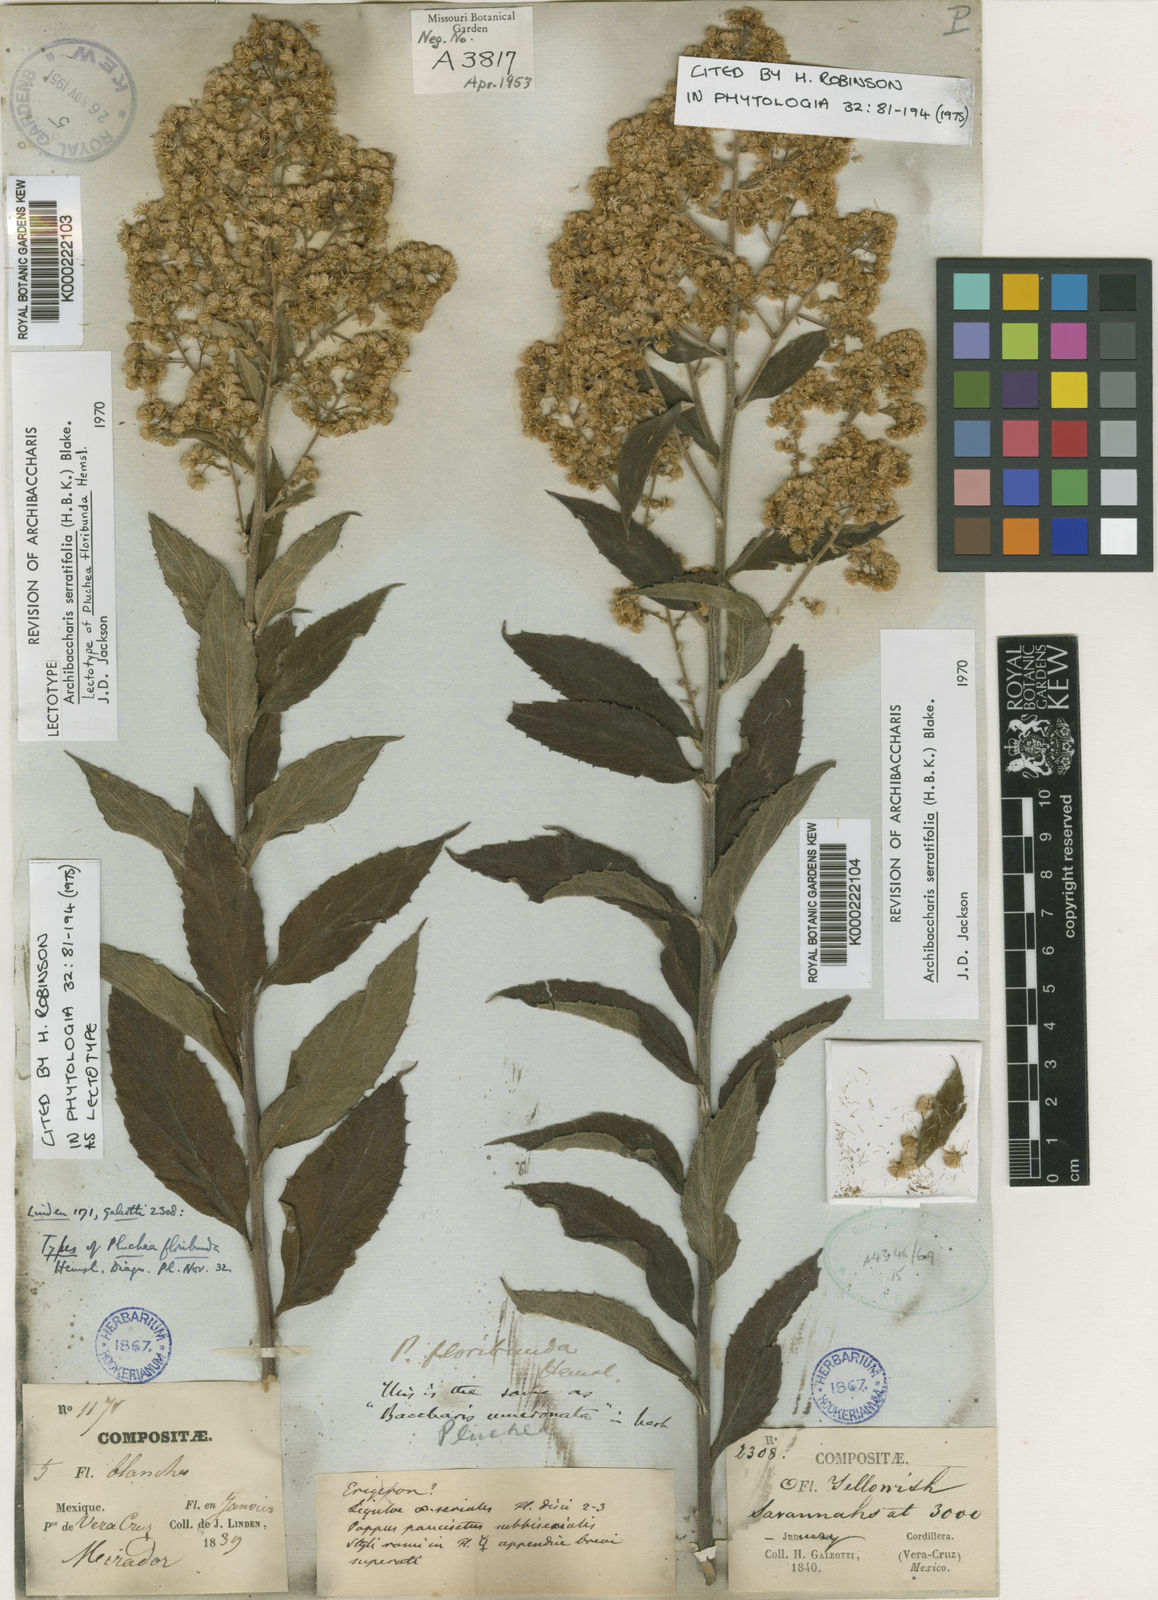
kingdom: Plantae
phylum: Tracheophyta
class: Magnoliopsida
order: Asterales
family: Asteraceae
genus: Archibaccharis
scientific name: Archibaccharis serratifolia
